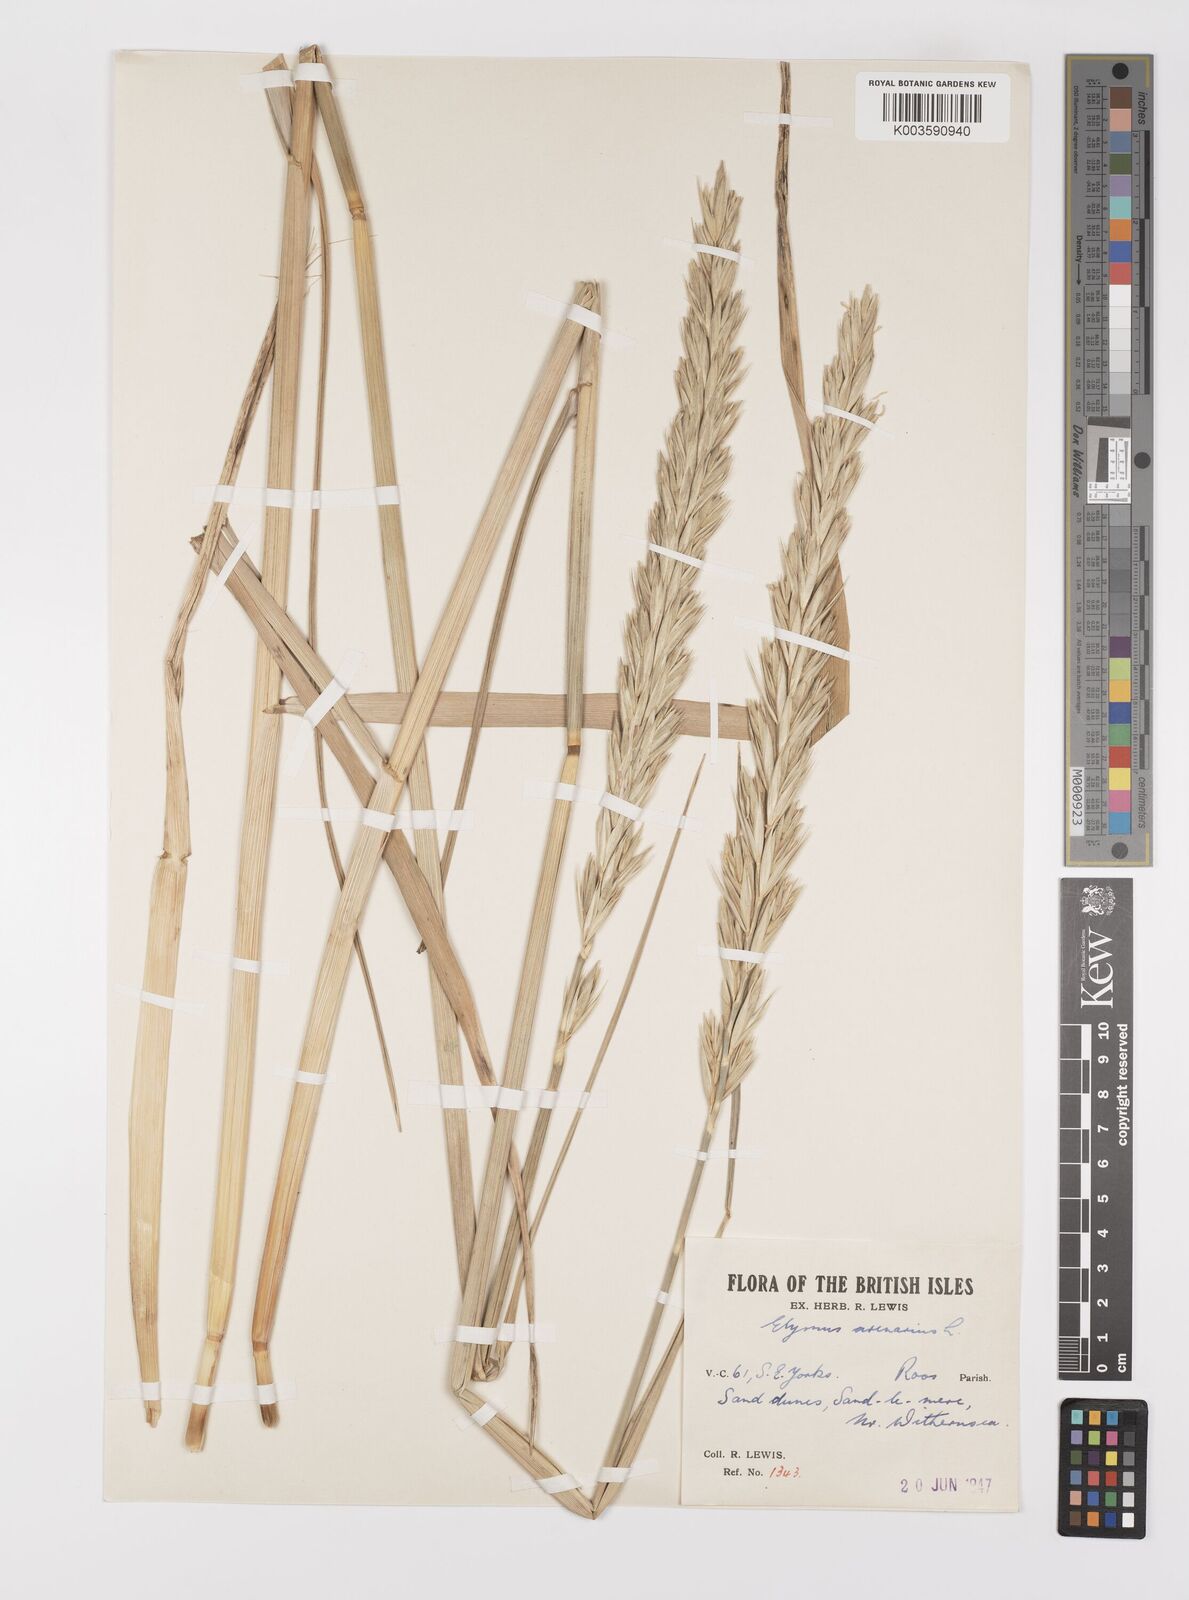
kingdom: Plantae
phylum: Tracheophyta
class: Liliopsida
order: Poales
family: Poaceae
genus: Leymus
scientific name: Leymus
